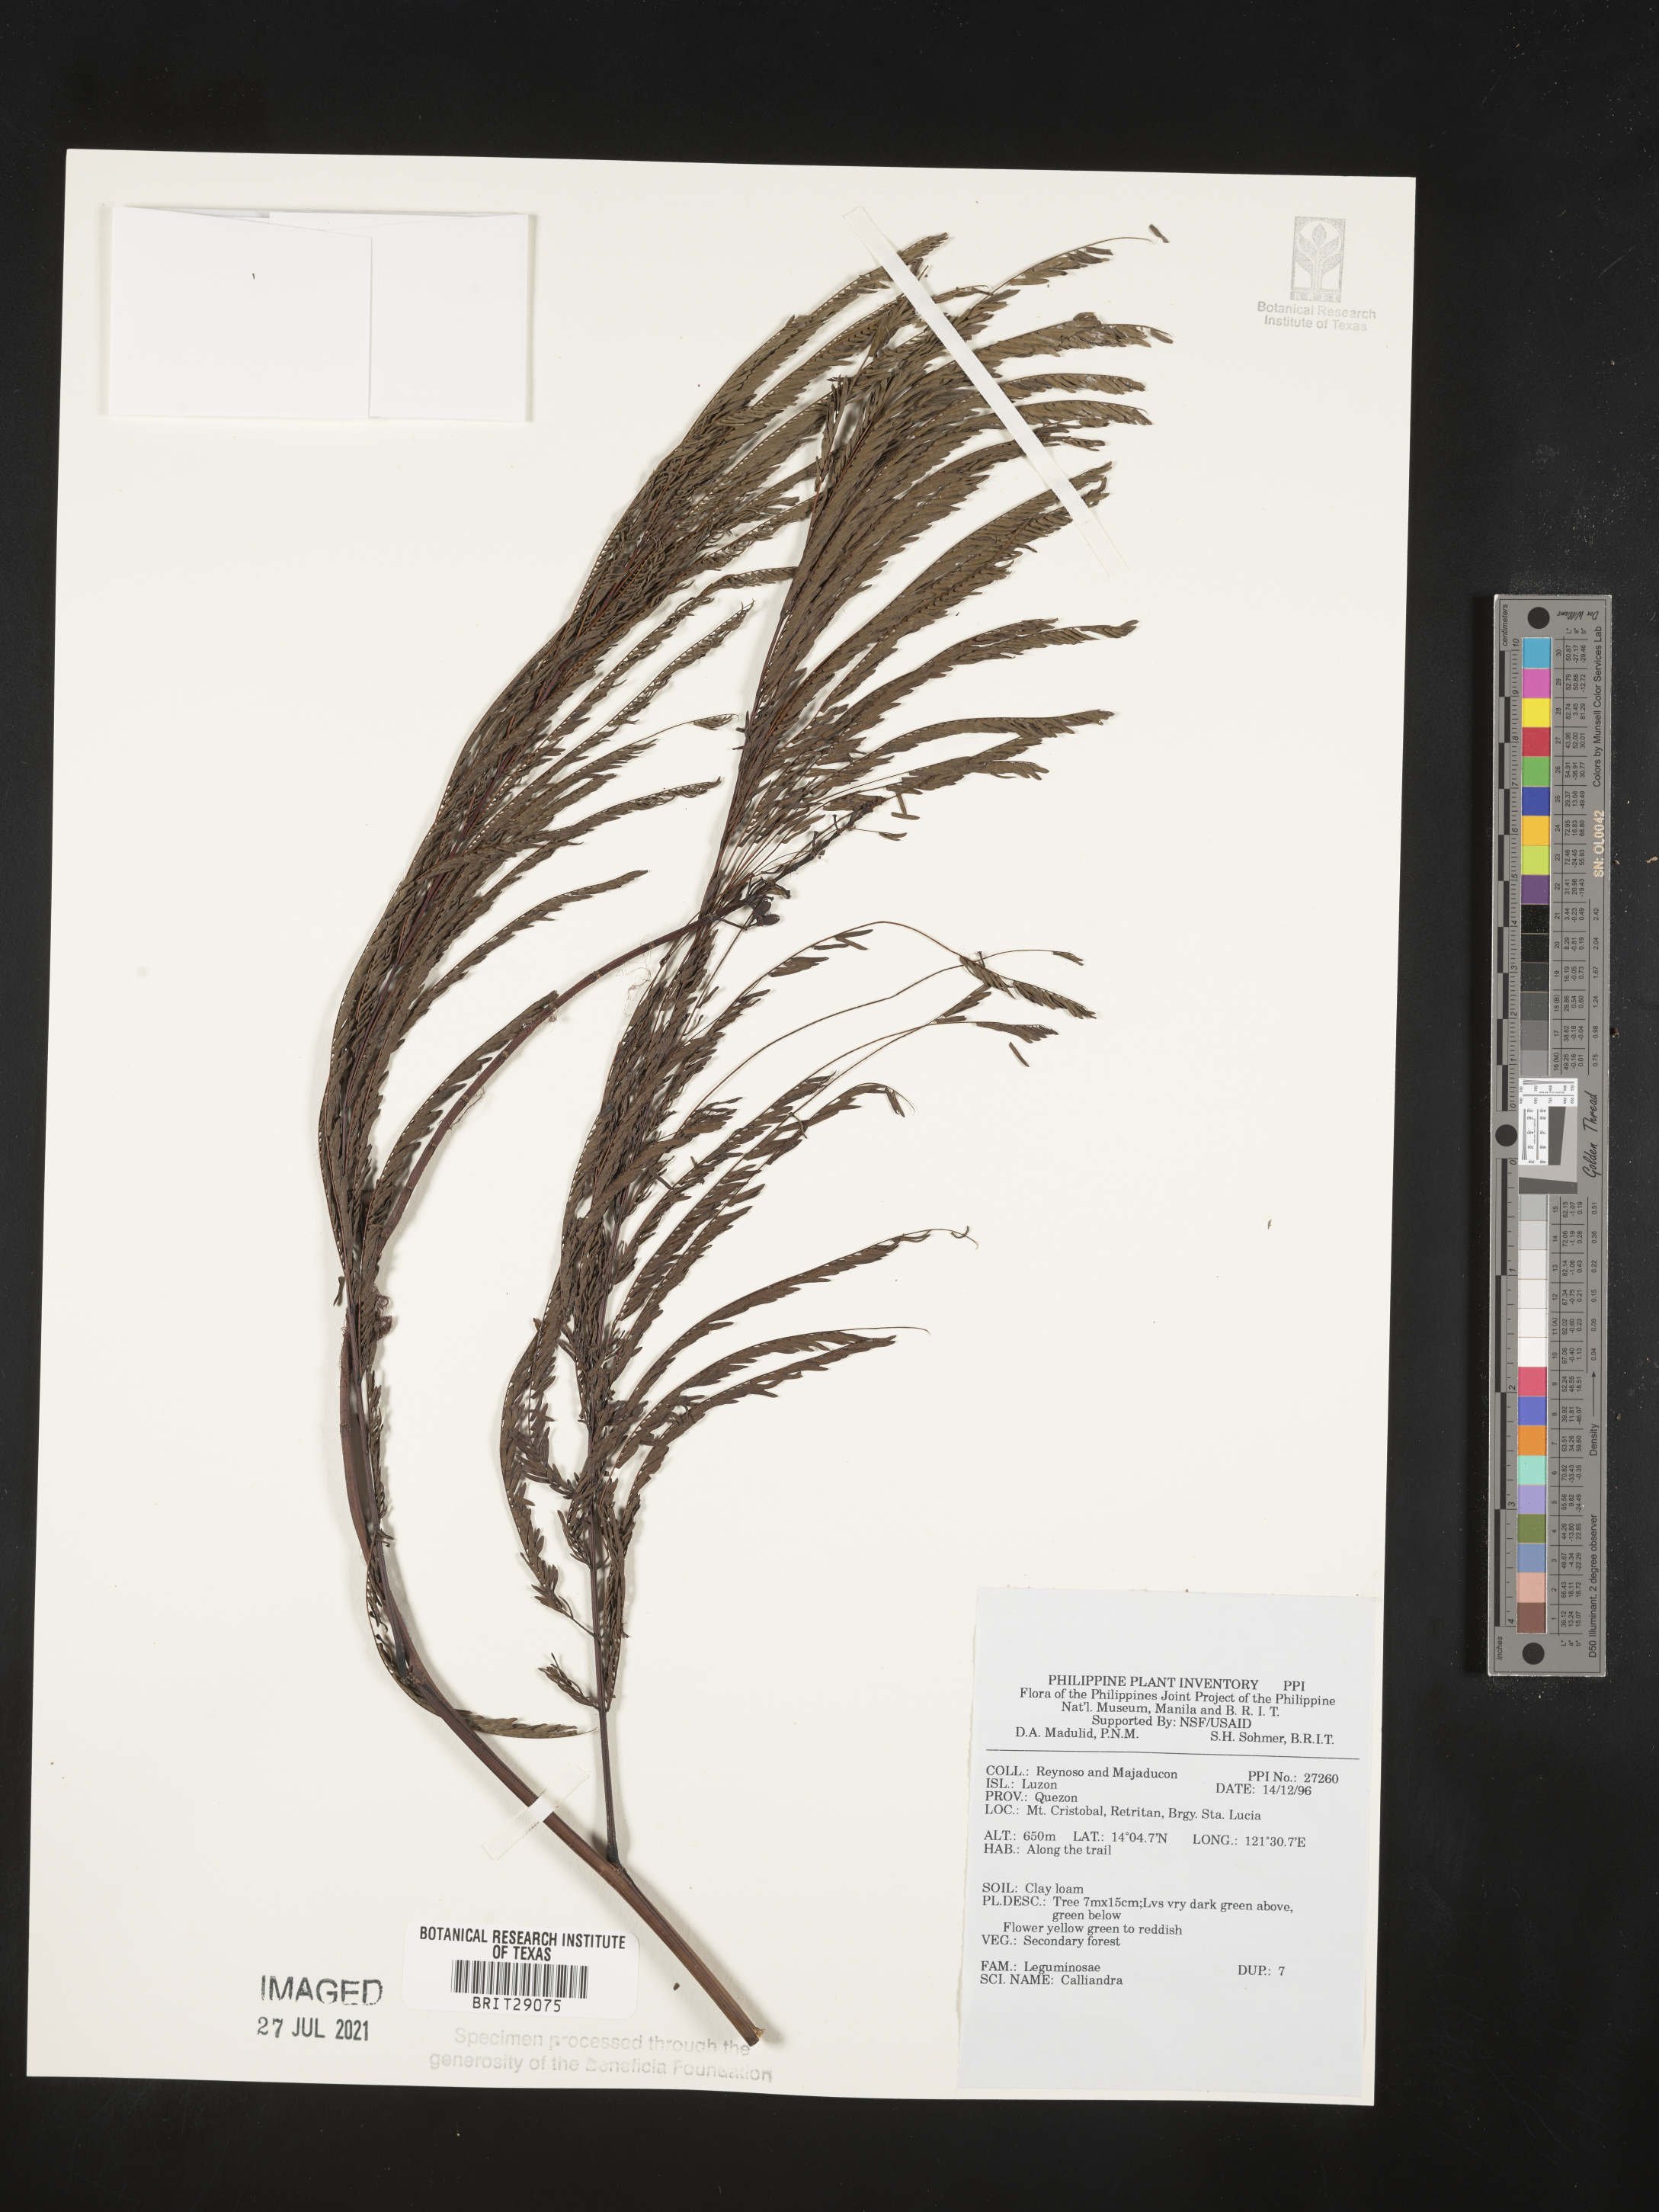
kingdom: Plantae
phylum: Tracheophyta
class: Magnoliopsida
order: Fabales
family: Fabaceae
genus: Calliandra
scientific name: Calliandra
